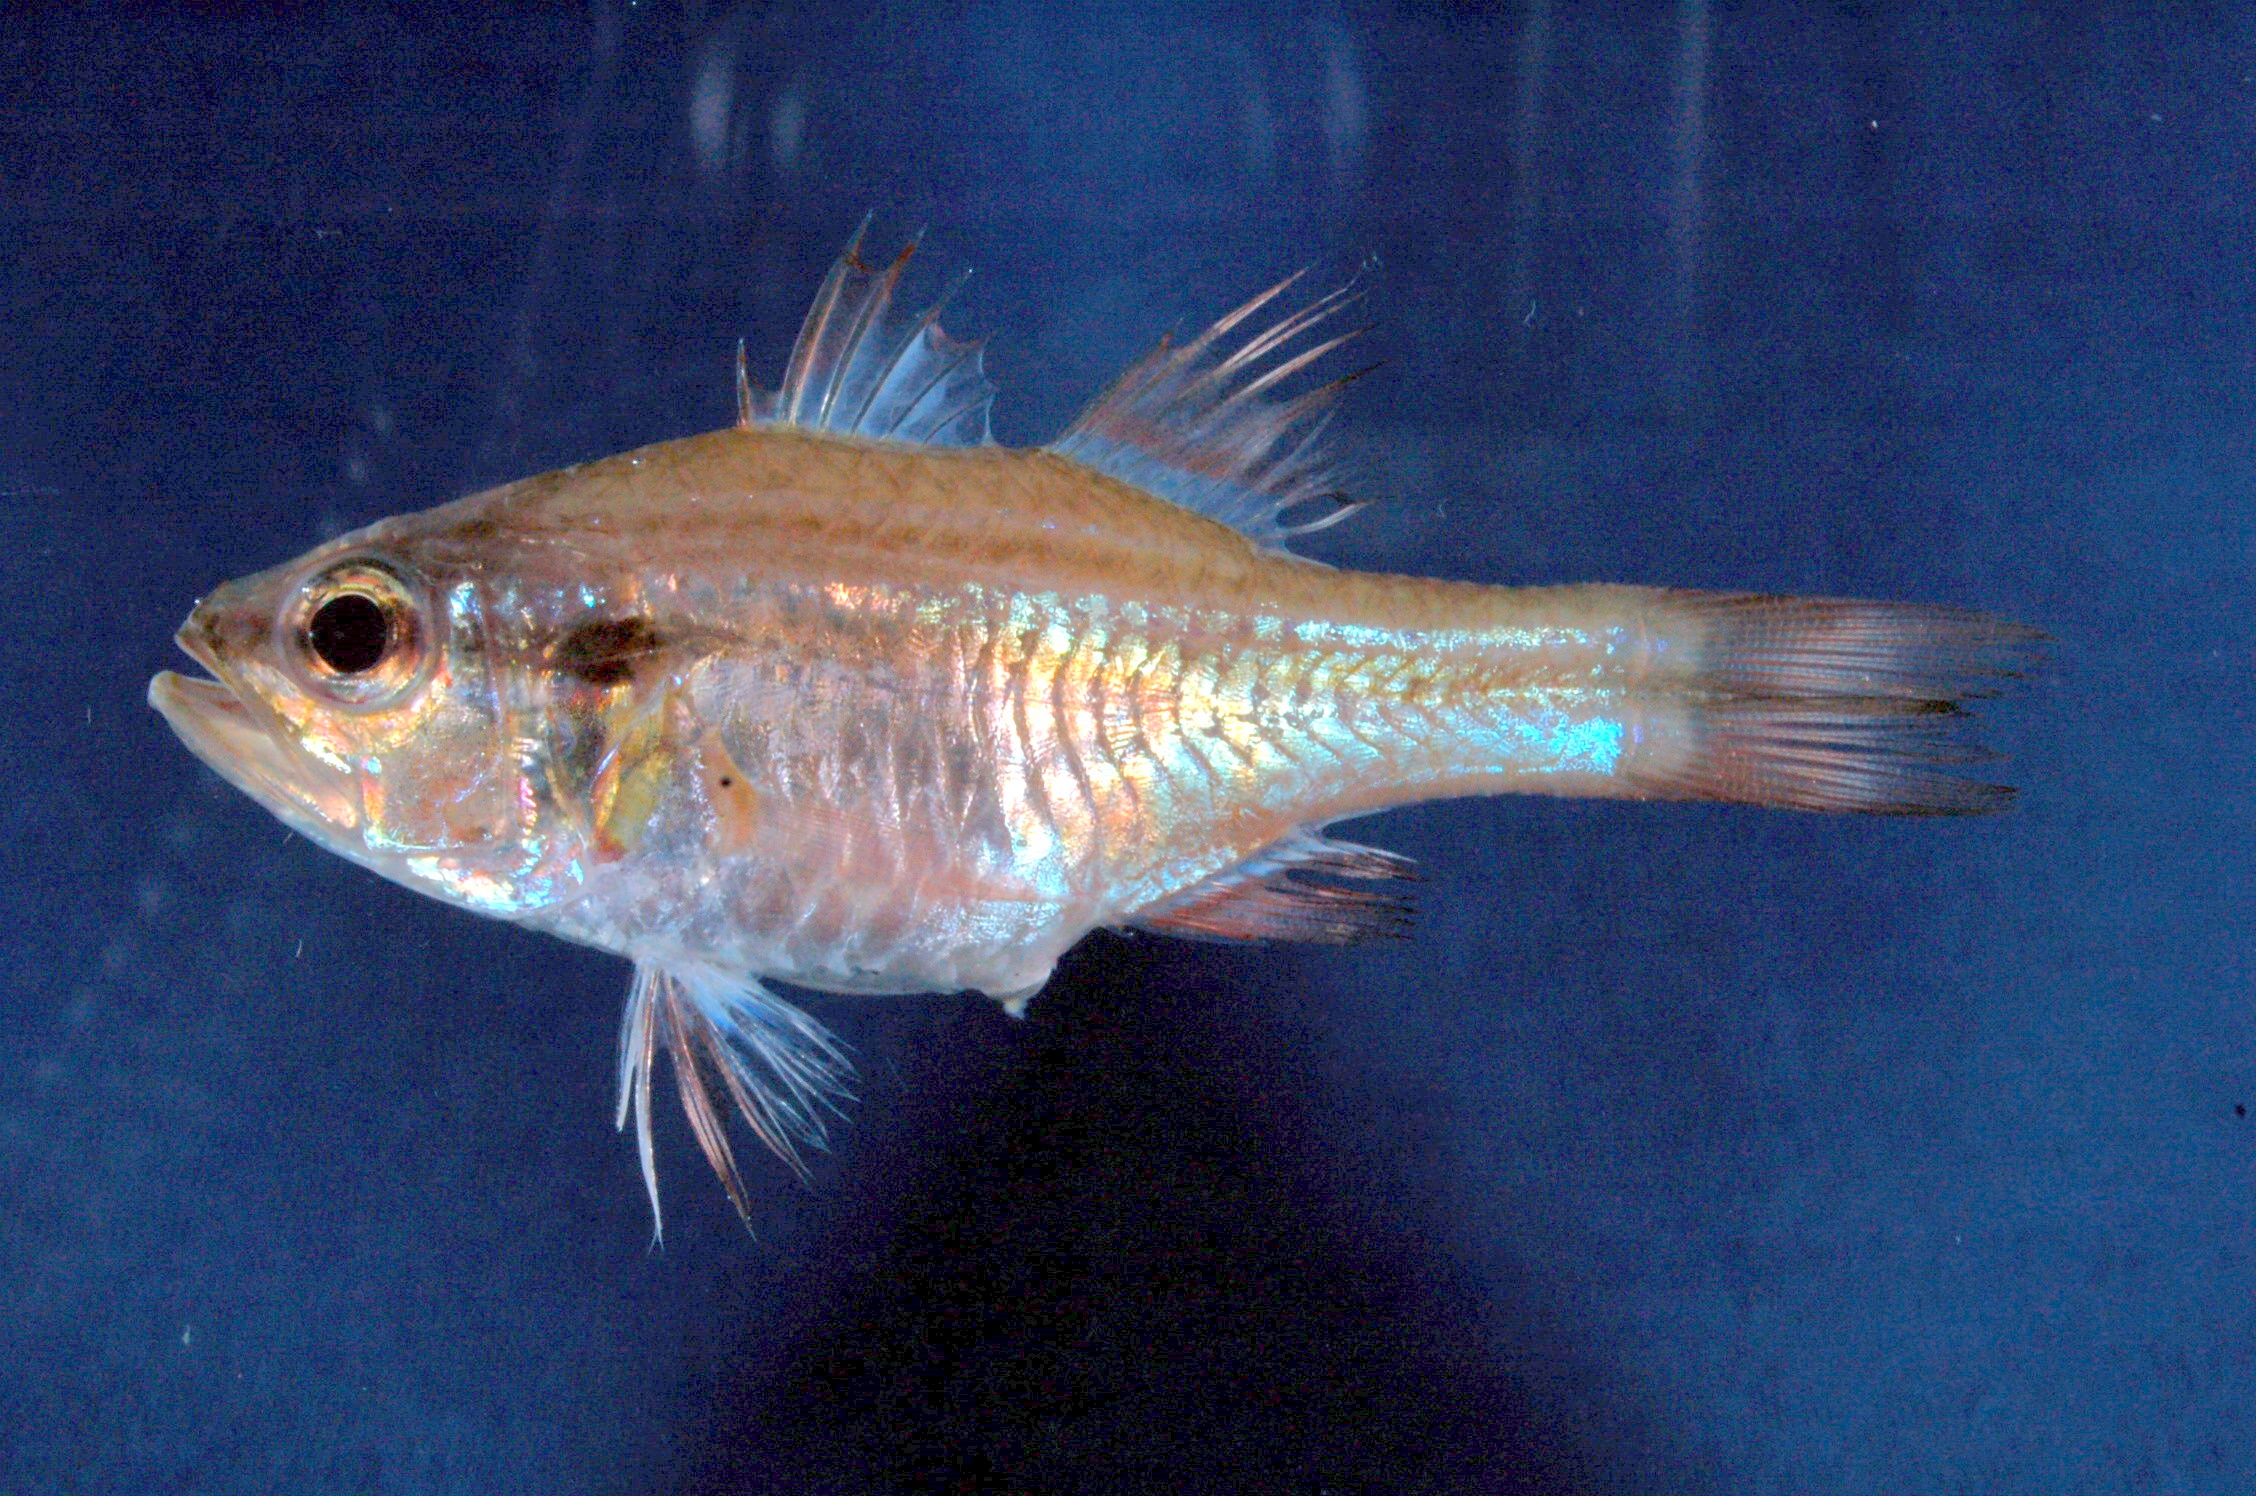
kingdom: Animalia
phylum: Chordata
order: Perciformes
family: Apogonidae
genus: Ostorhinchus
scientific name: Ostorhinchus fasciatus
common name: Twostripe cardinal
